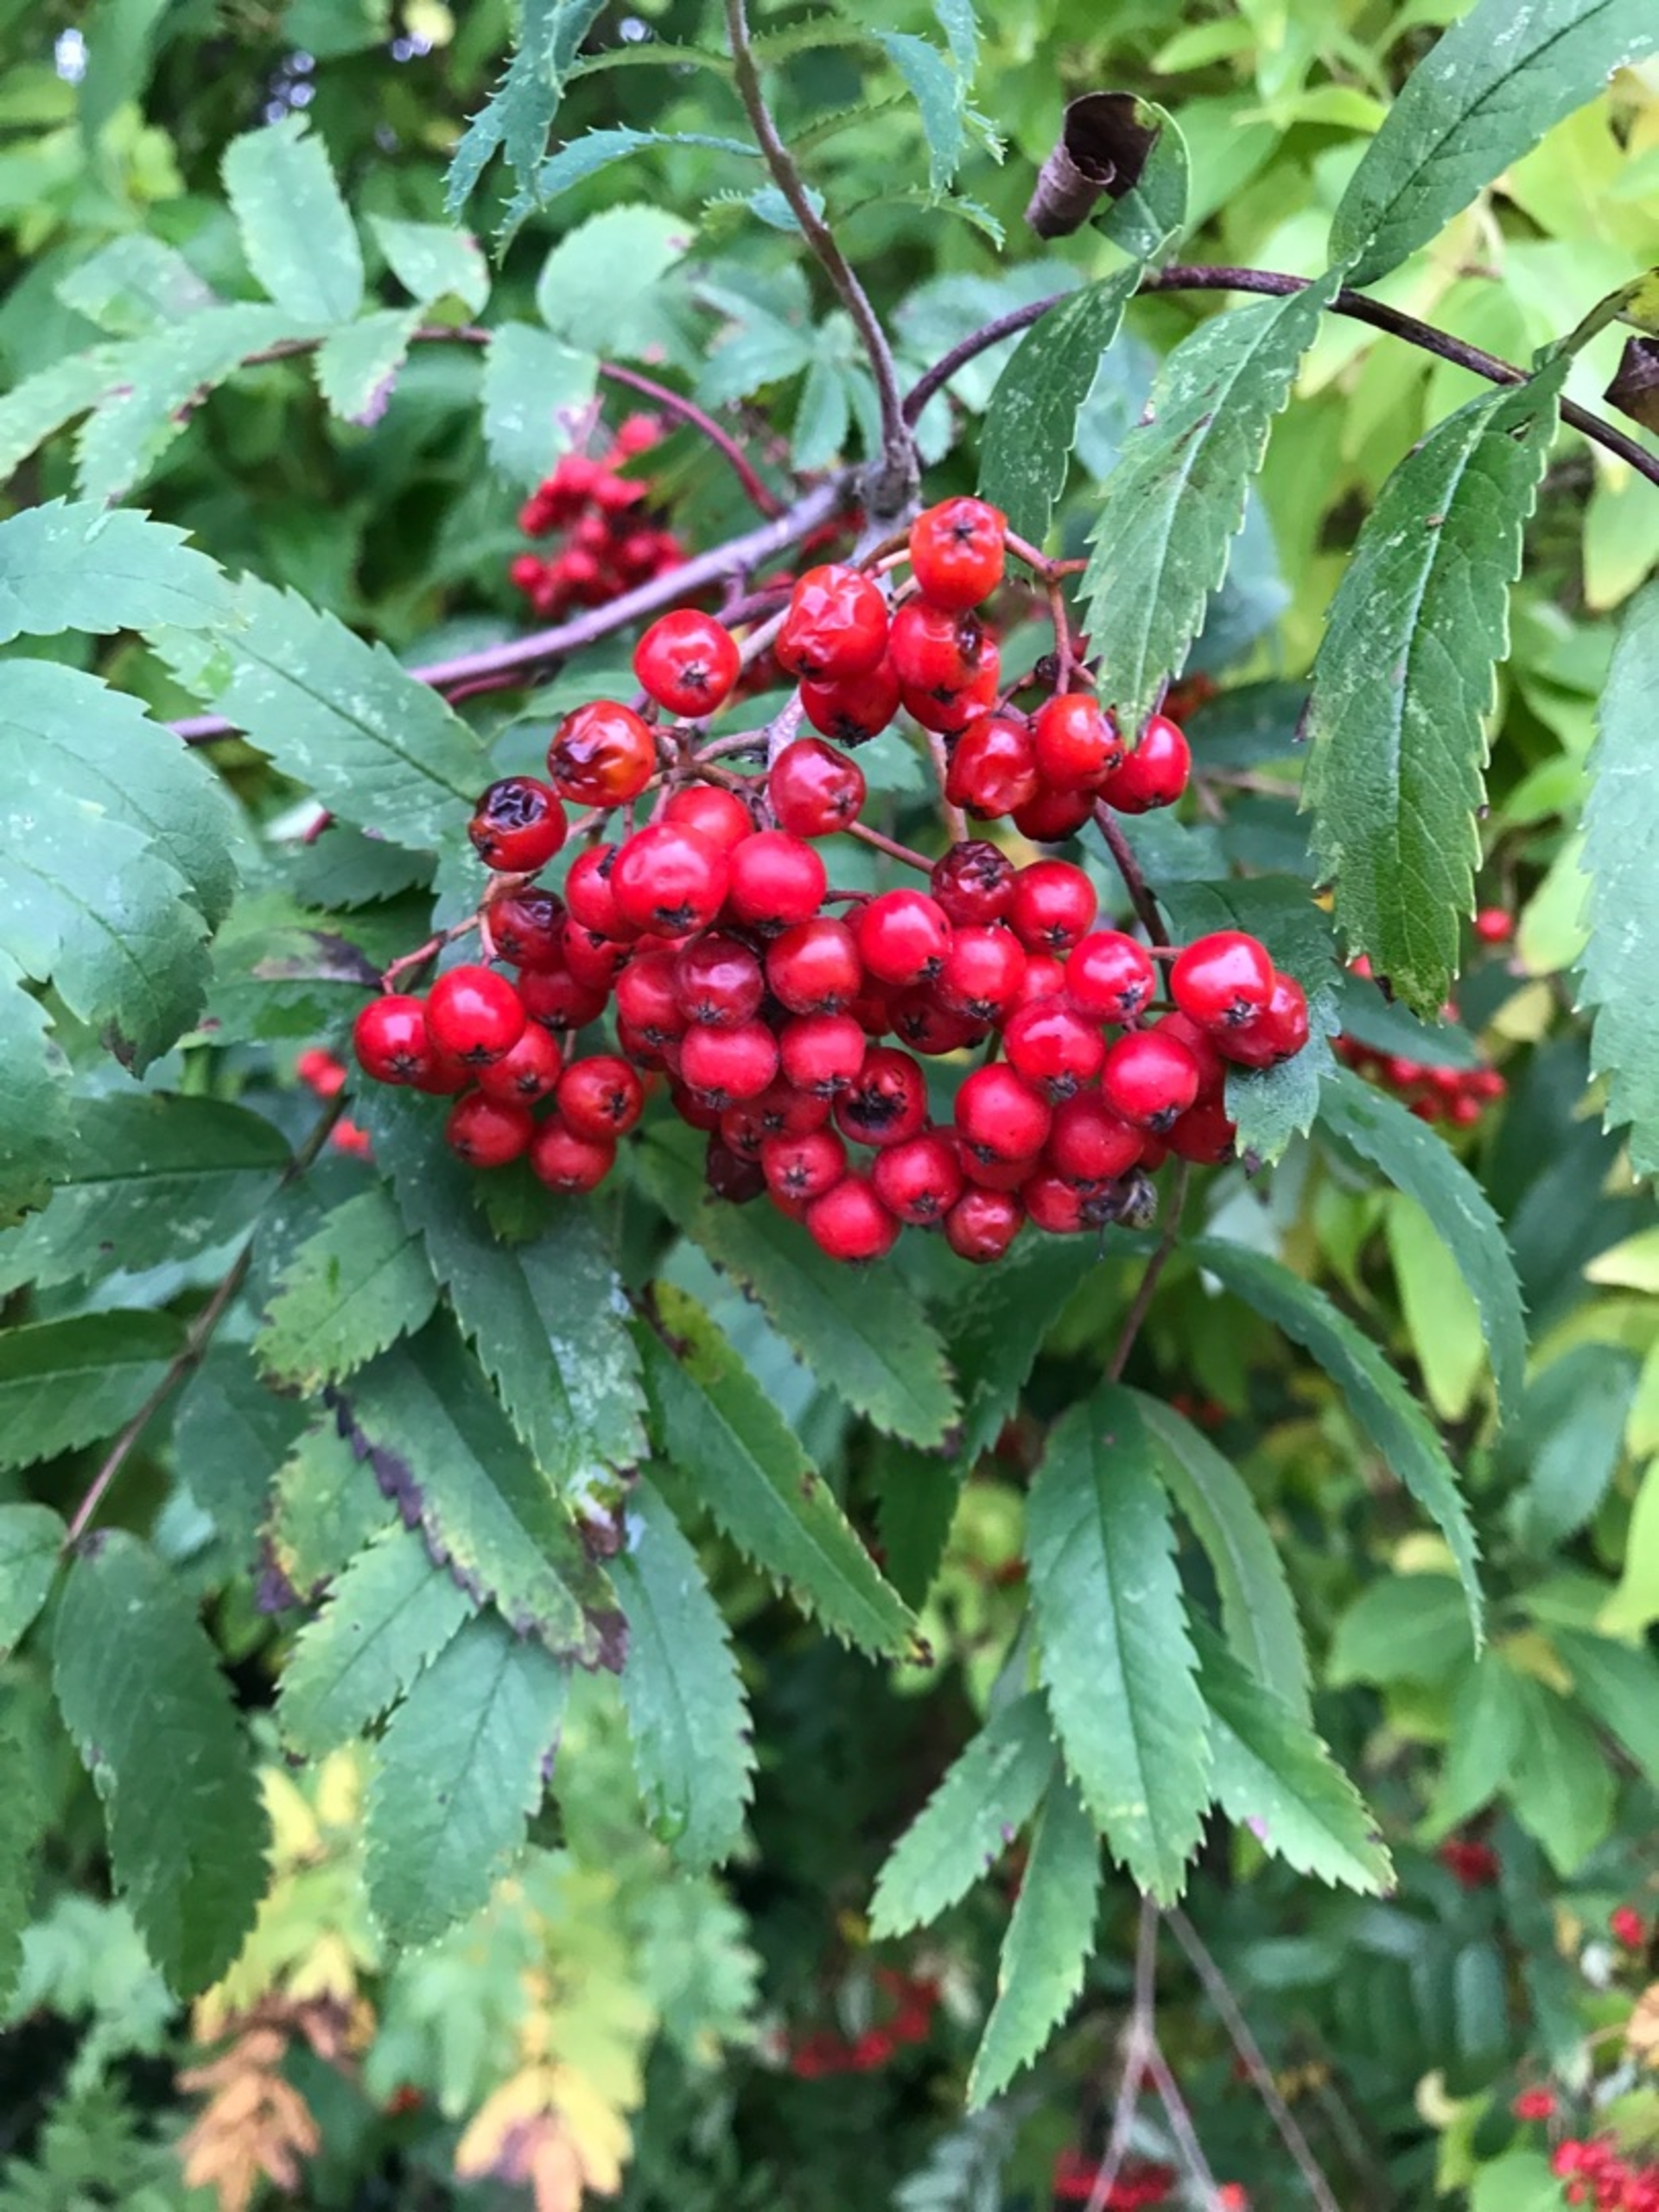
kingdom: Plantae
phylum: Tracheophyta
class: Magnoliopsida
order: Rosales
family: Rosaceae
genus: Sorbus
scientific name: Sorbus aucuparia
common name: Almindelig røn
